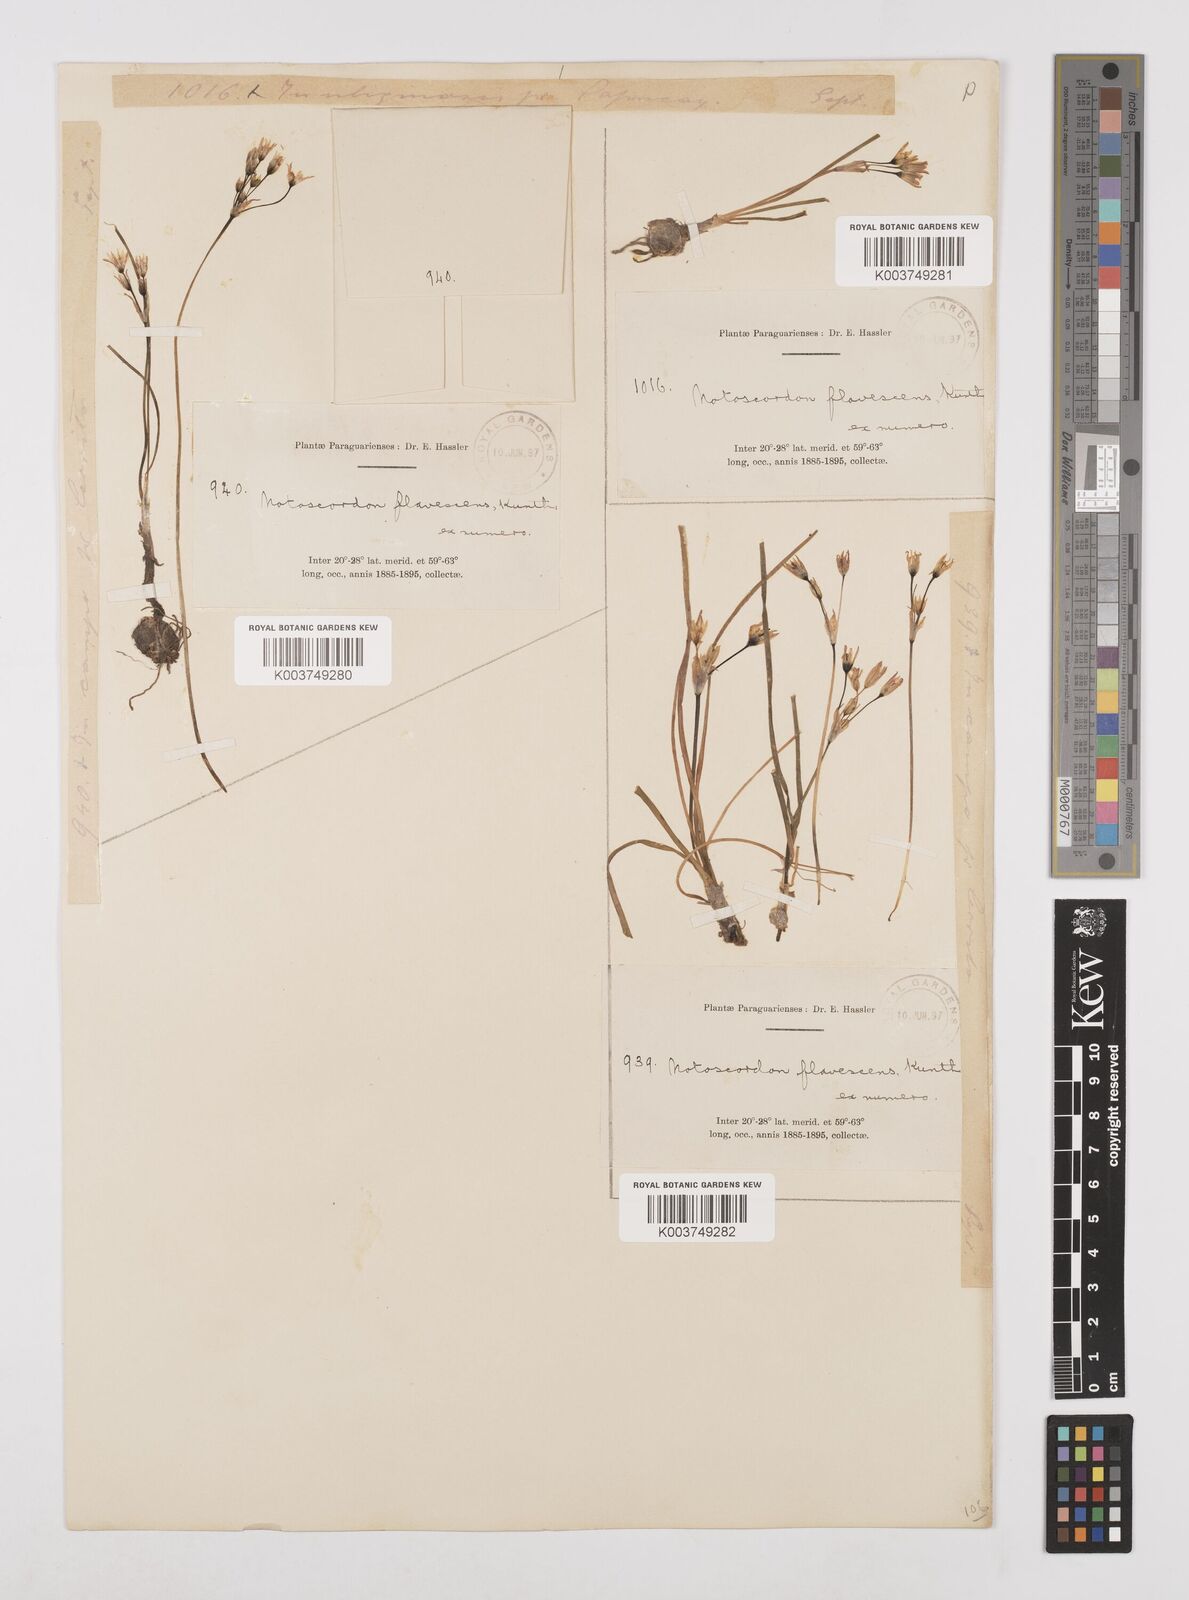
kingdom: Plantae
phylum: Tracheophyta
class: Liliopsida
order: Asparagales
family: Amaryllidaceae
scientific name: Amaryllidaceae
